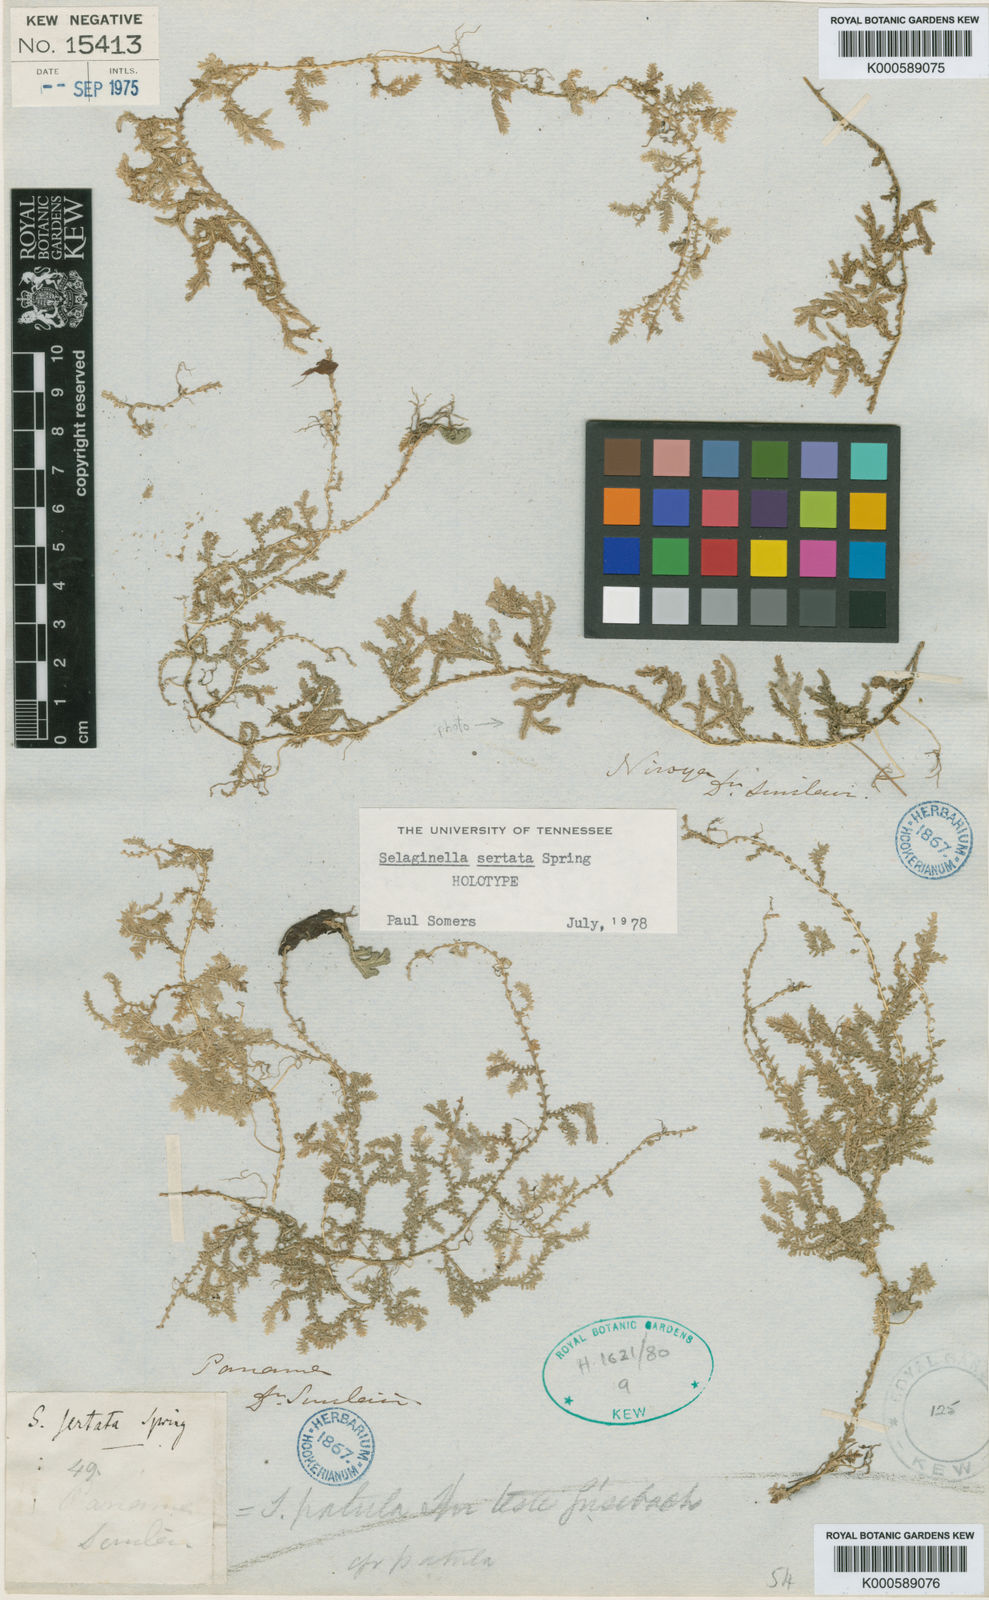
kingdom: Plantae
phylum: Tracheophyta
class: Lycopodiopsida
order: Selaginellales
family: Selaginellaceae
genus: Selaginella
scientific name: Selaginella sertata
